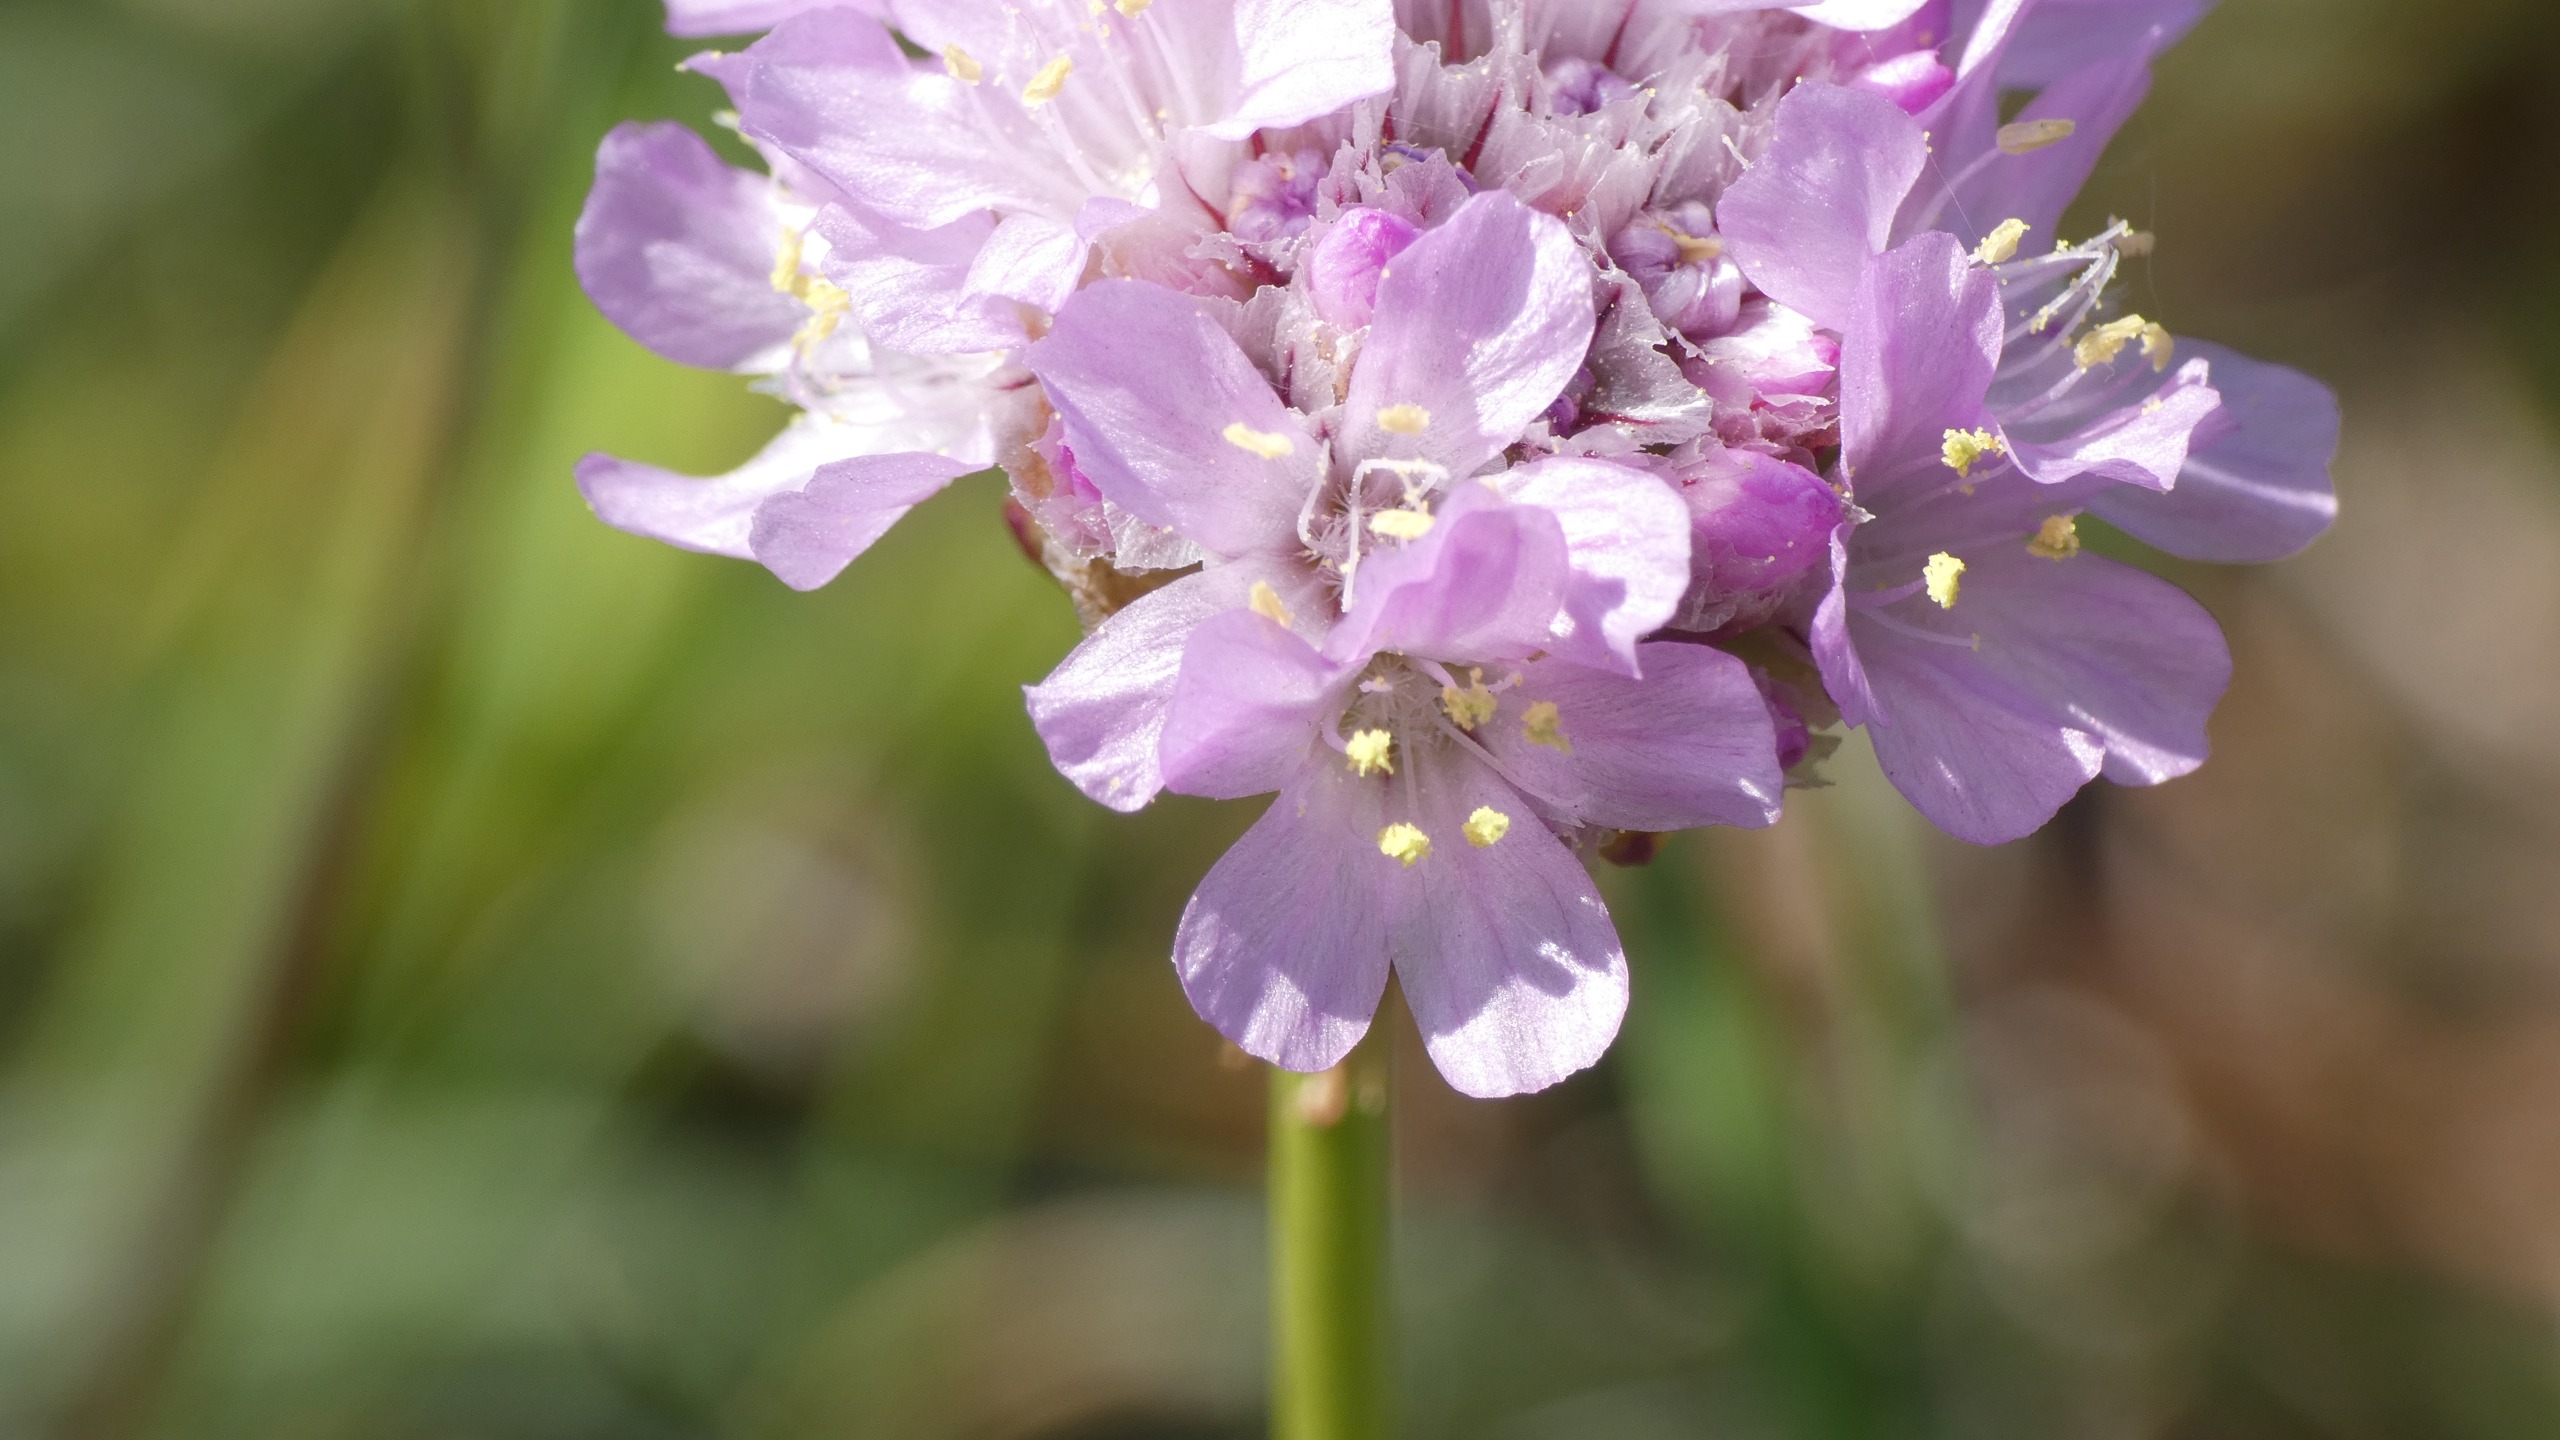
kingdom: Plantae
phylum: Tracheophyta
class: Magnoliopsida
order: Caryophyllales
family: Plumbaginaceae
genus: Armeria
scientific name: Armeria maritima
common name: Engelskgræs
